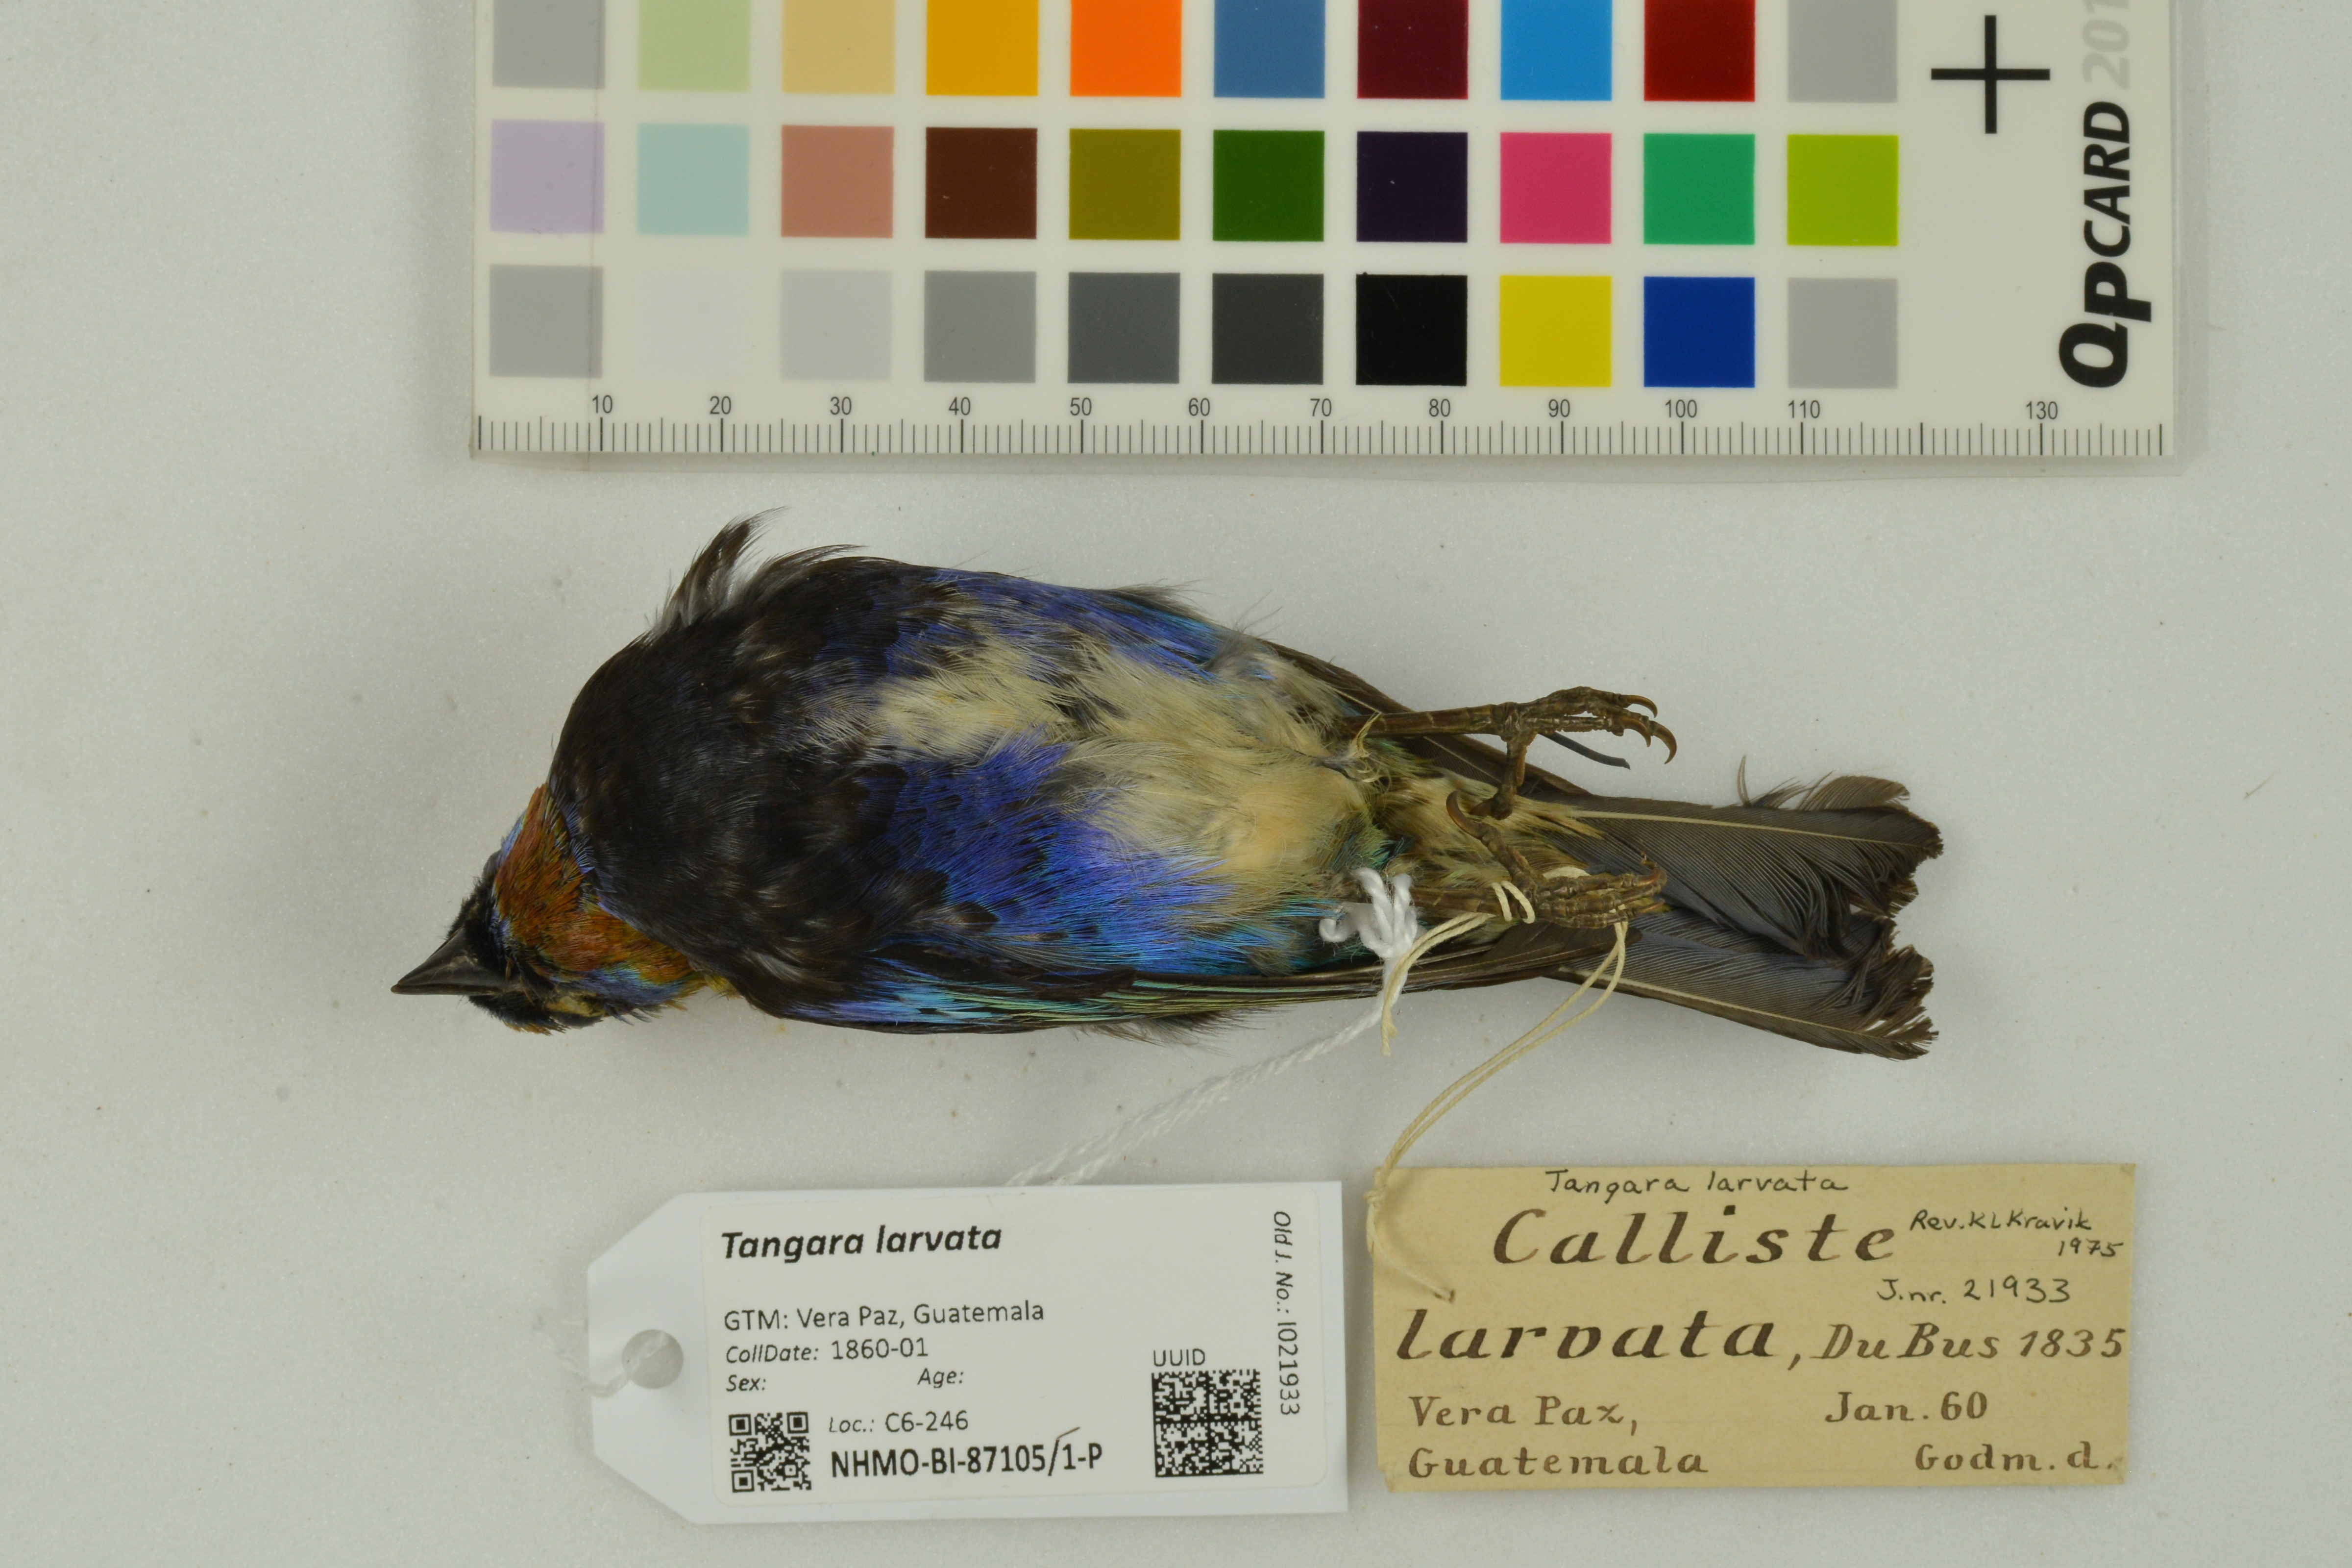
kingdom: Animalia
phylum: Chordata
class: Aves
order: Passeriformes
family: Thraupidae
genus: Stilpnia
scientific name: Stilpnia larvata
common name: Golden-hooded tanager
